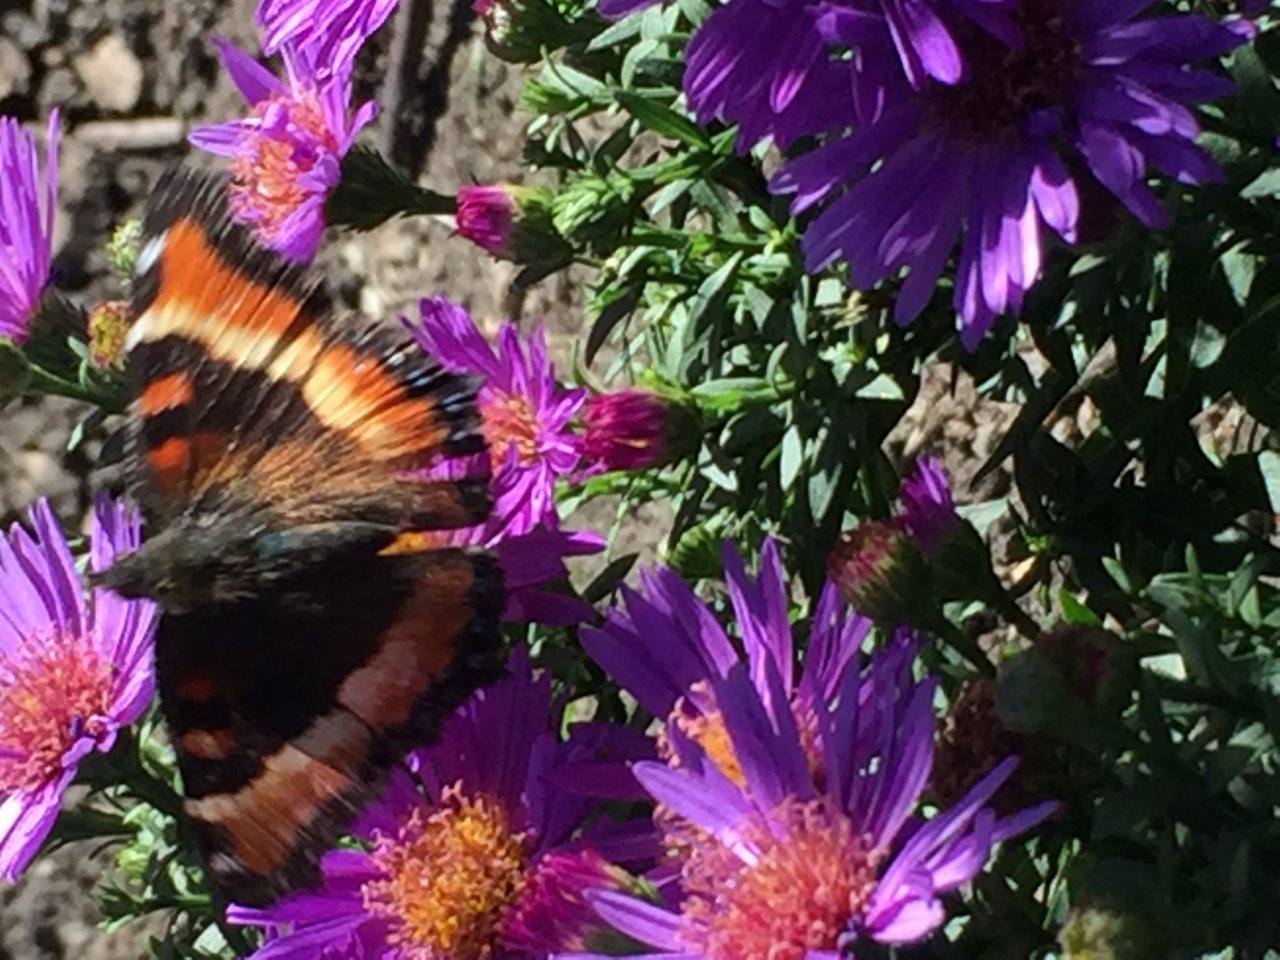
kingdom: Animalia
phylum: Arthropoda
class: Insecta
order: Lepidoptera
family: Nymphalidae
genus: Aglais
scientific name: Aglais milberti
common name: Milbert's Tortoiseshell
